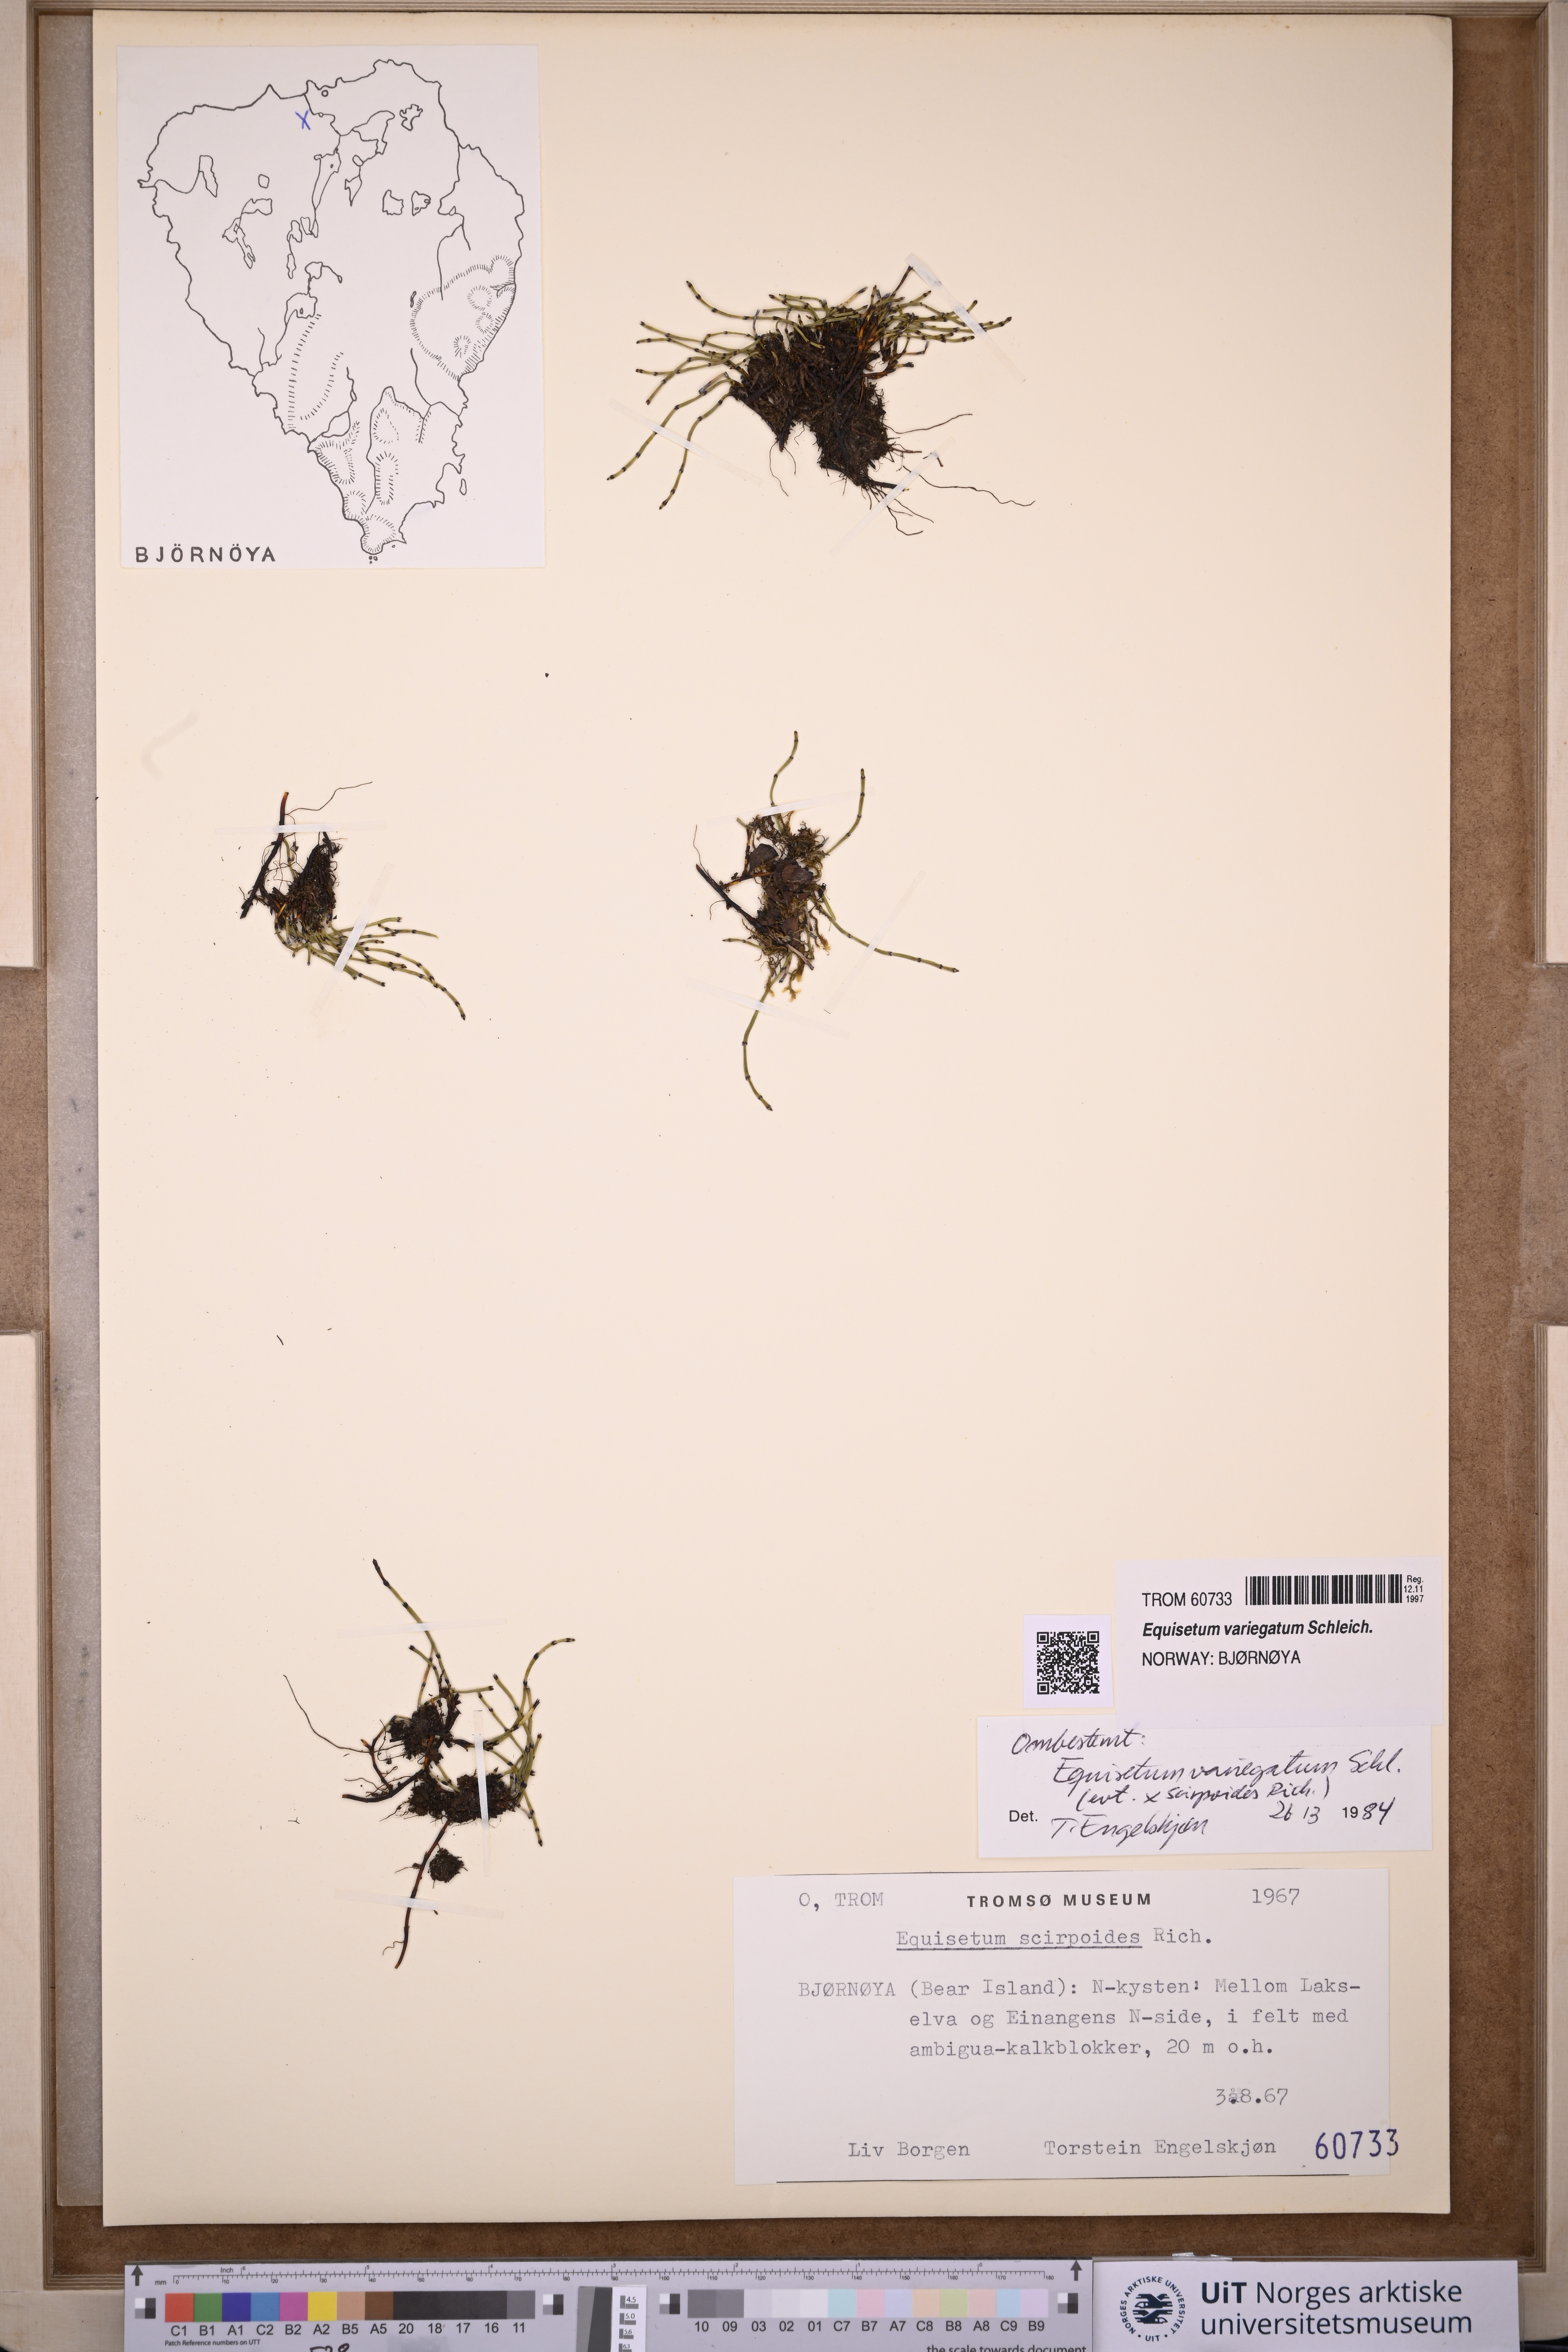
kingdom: Plantae
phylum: Tracheophyta
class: Polypodiopsida
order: Equisetales
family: Equisetaceae
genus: Equisetum
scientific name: Equisetum variegatum
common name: Variegated horsetail
